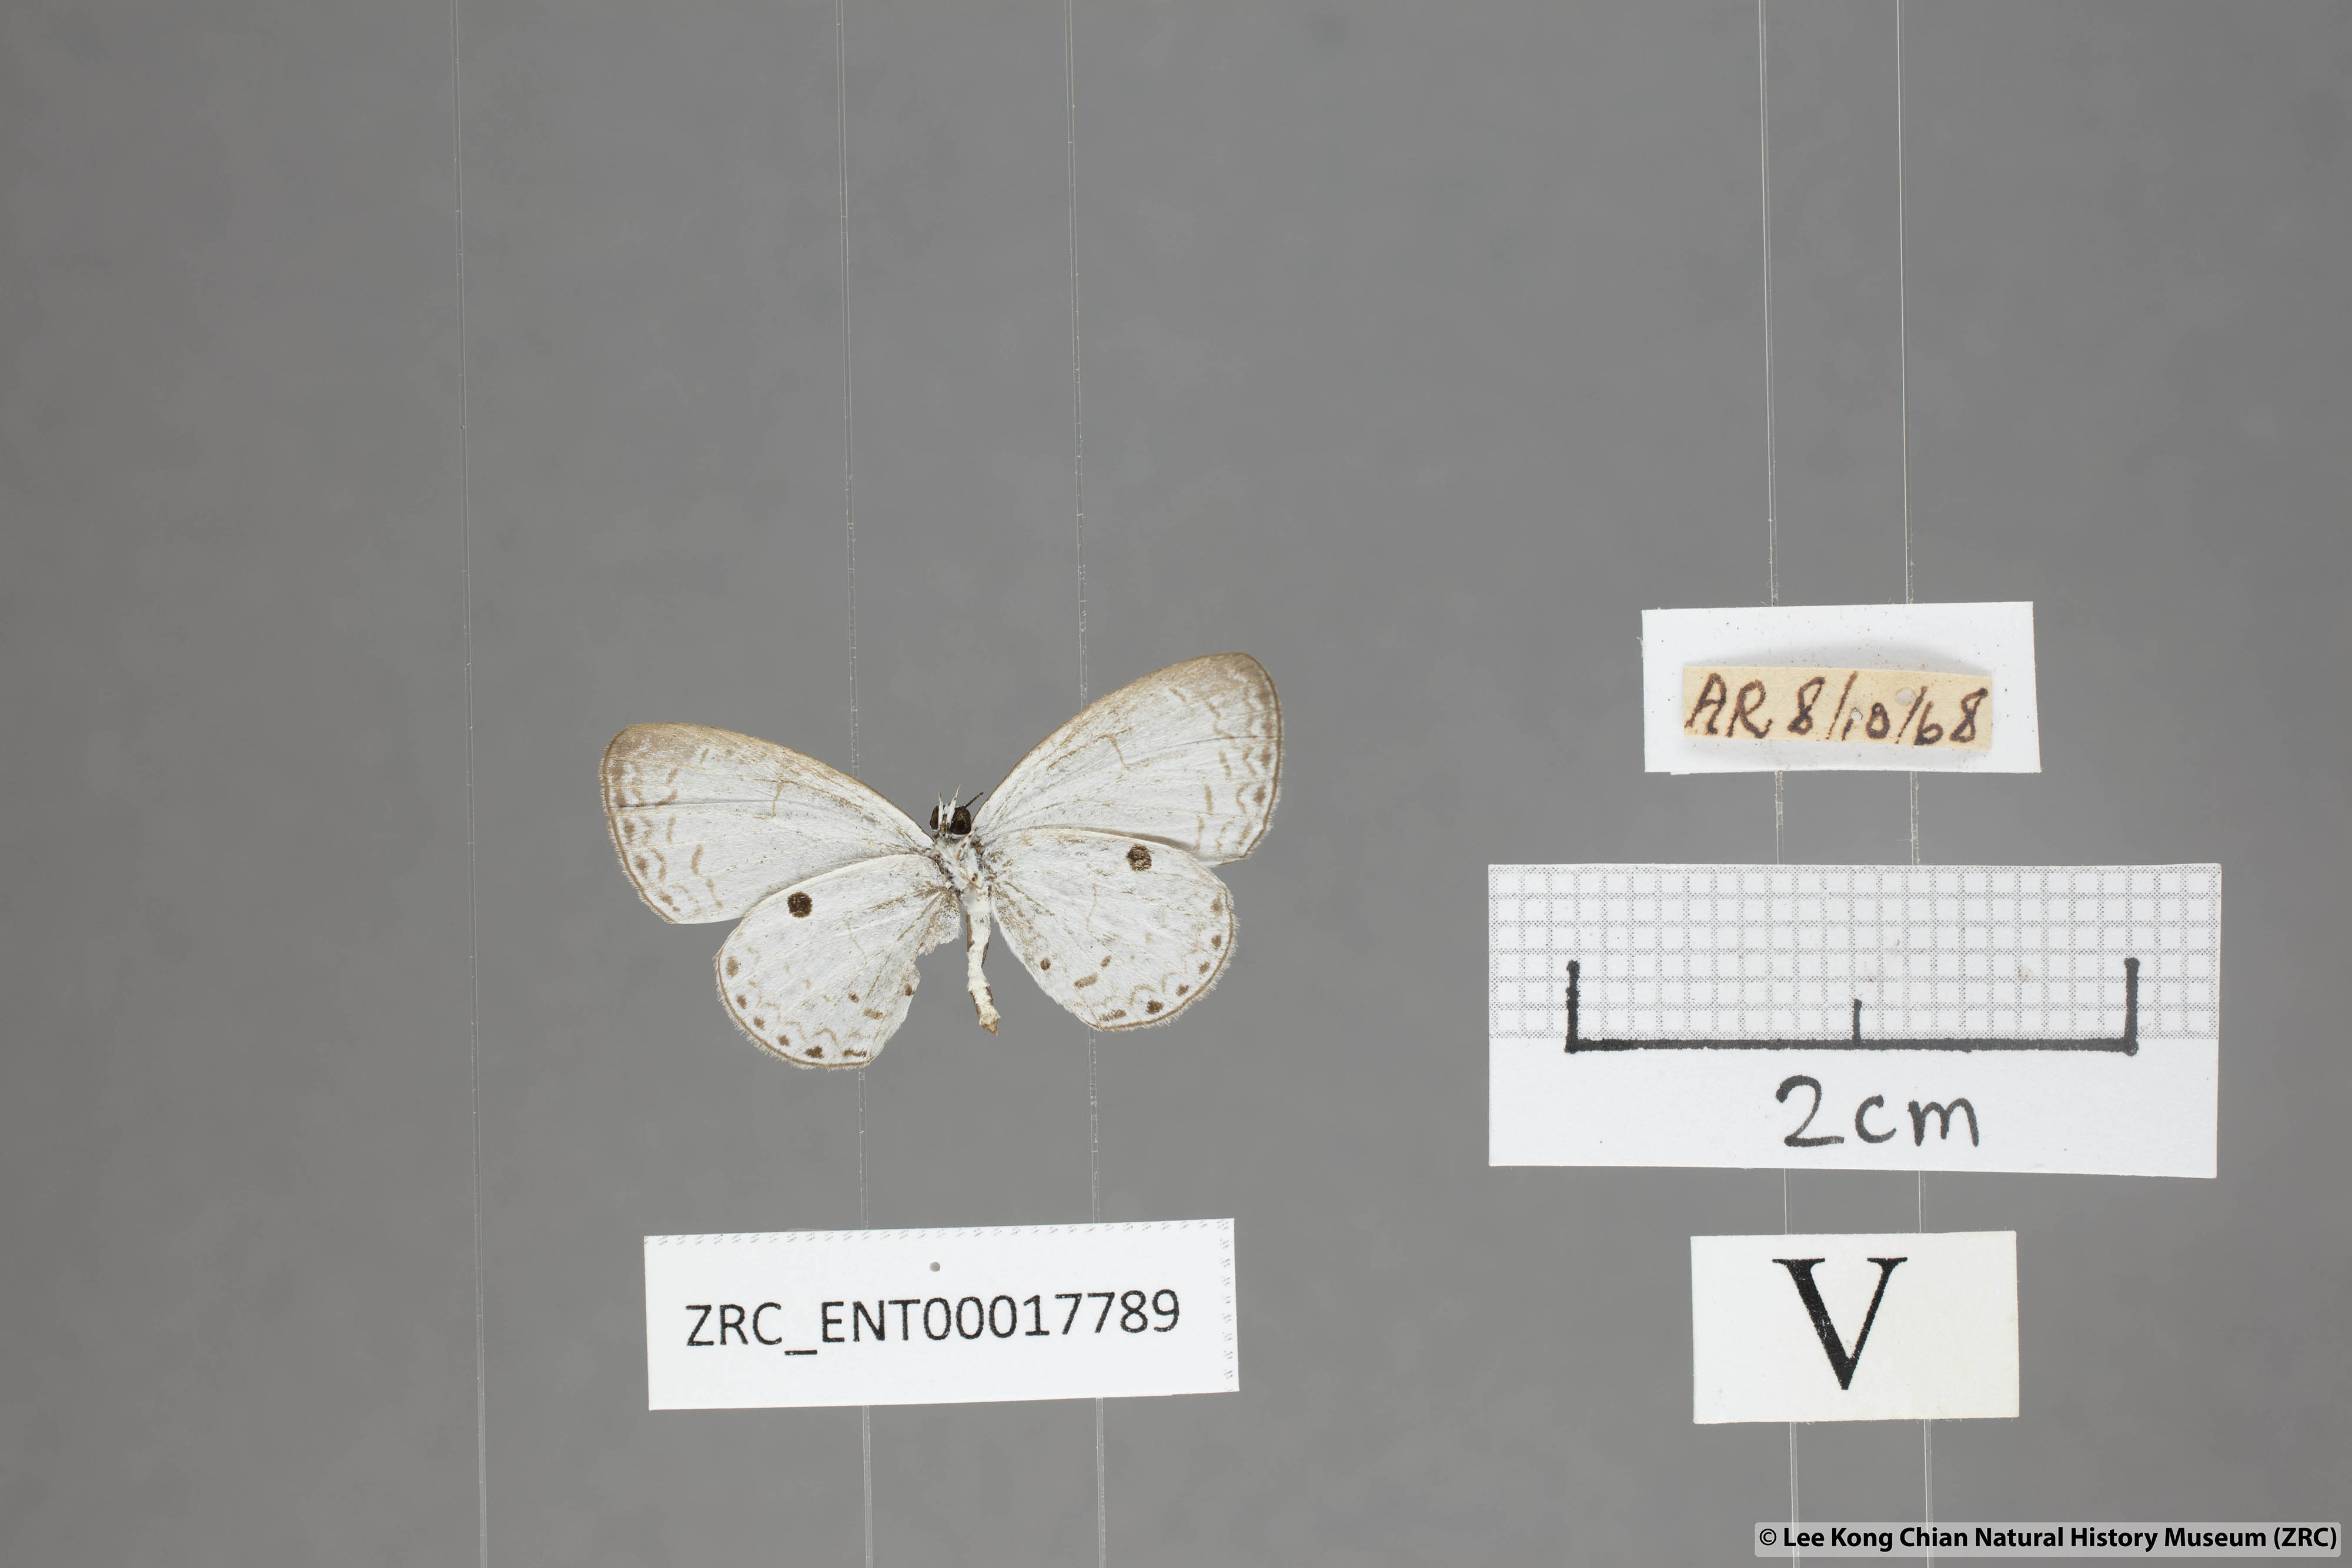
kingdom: Animalia
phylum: Arthropoda
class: Insecta
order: Lepidoptera
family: Lycaenidae
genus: Callenya
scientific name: Callenya lenya
